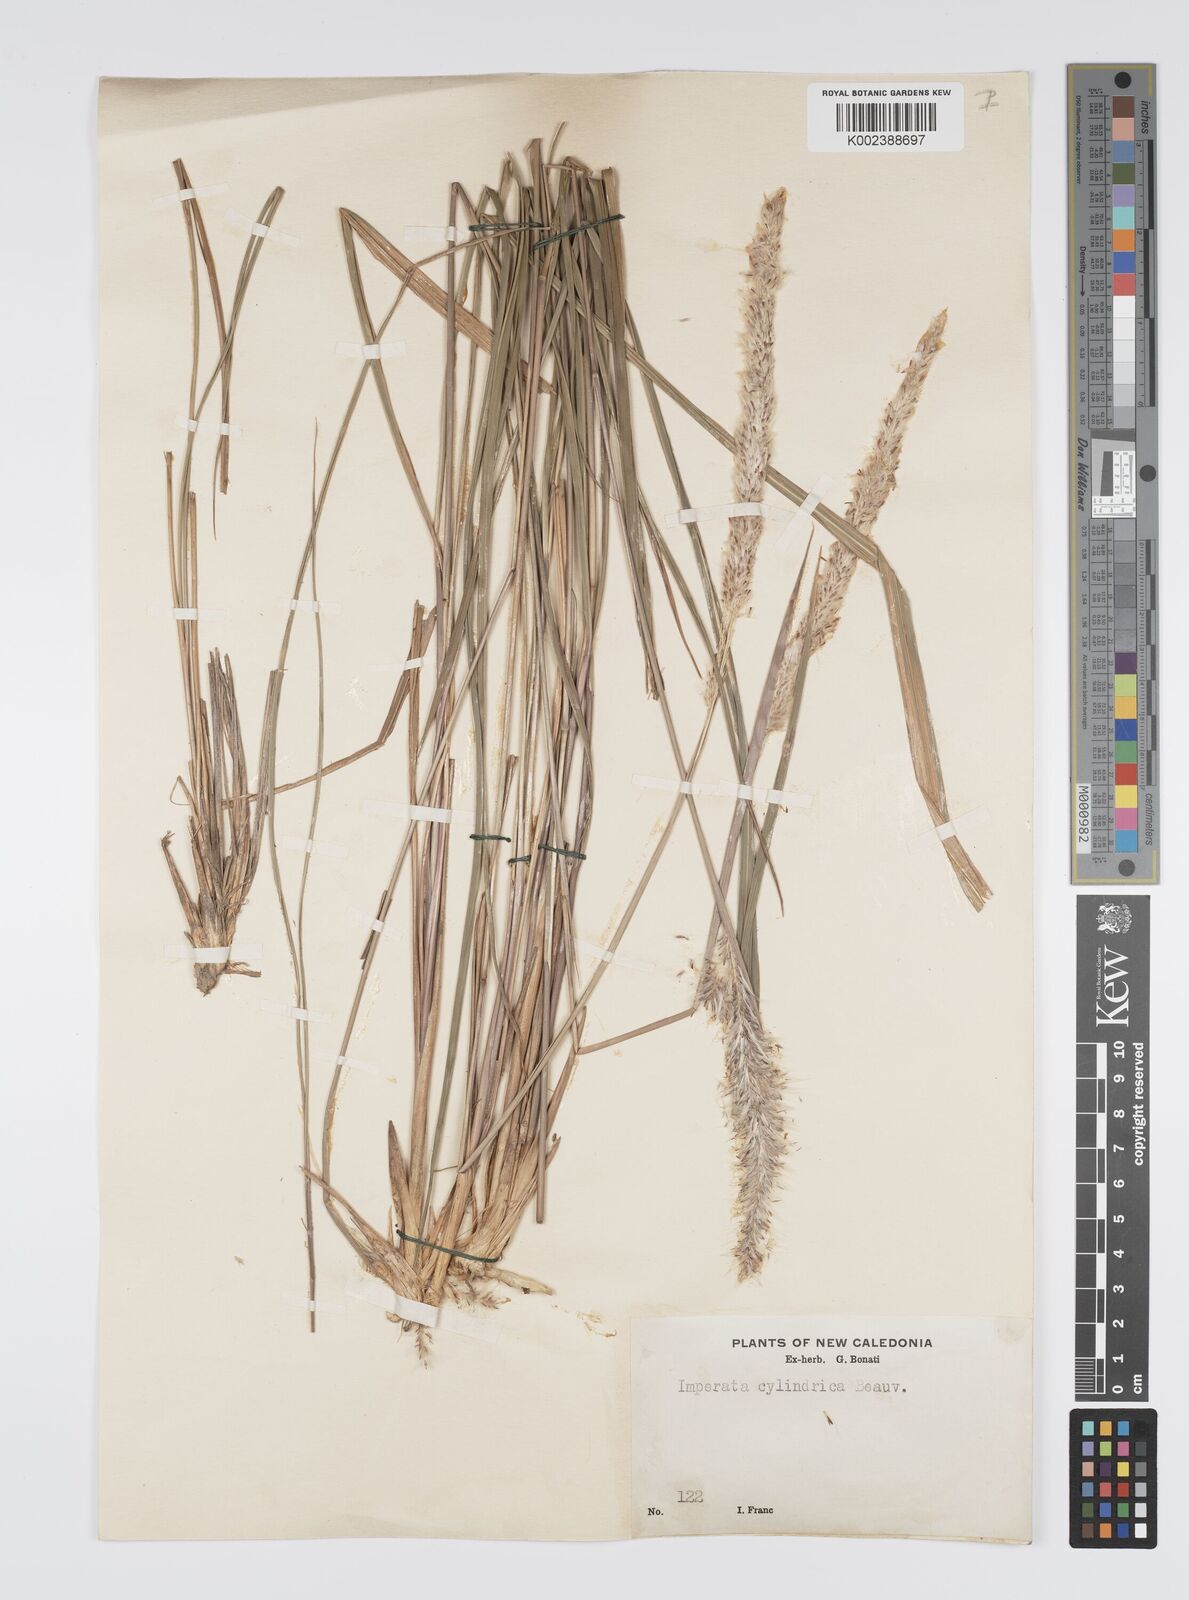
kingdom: Plantae
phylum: Tracheophyta
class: Liliopsida
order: Poales
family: Poaceae
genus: Imperata
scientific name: Imperata cylindrica
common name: Cogongrass
